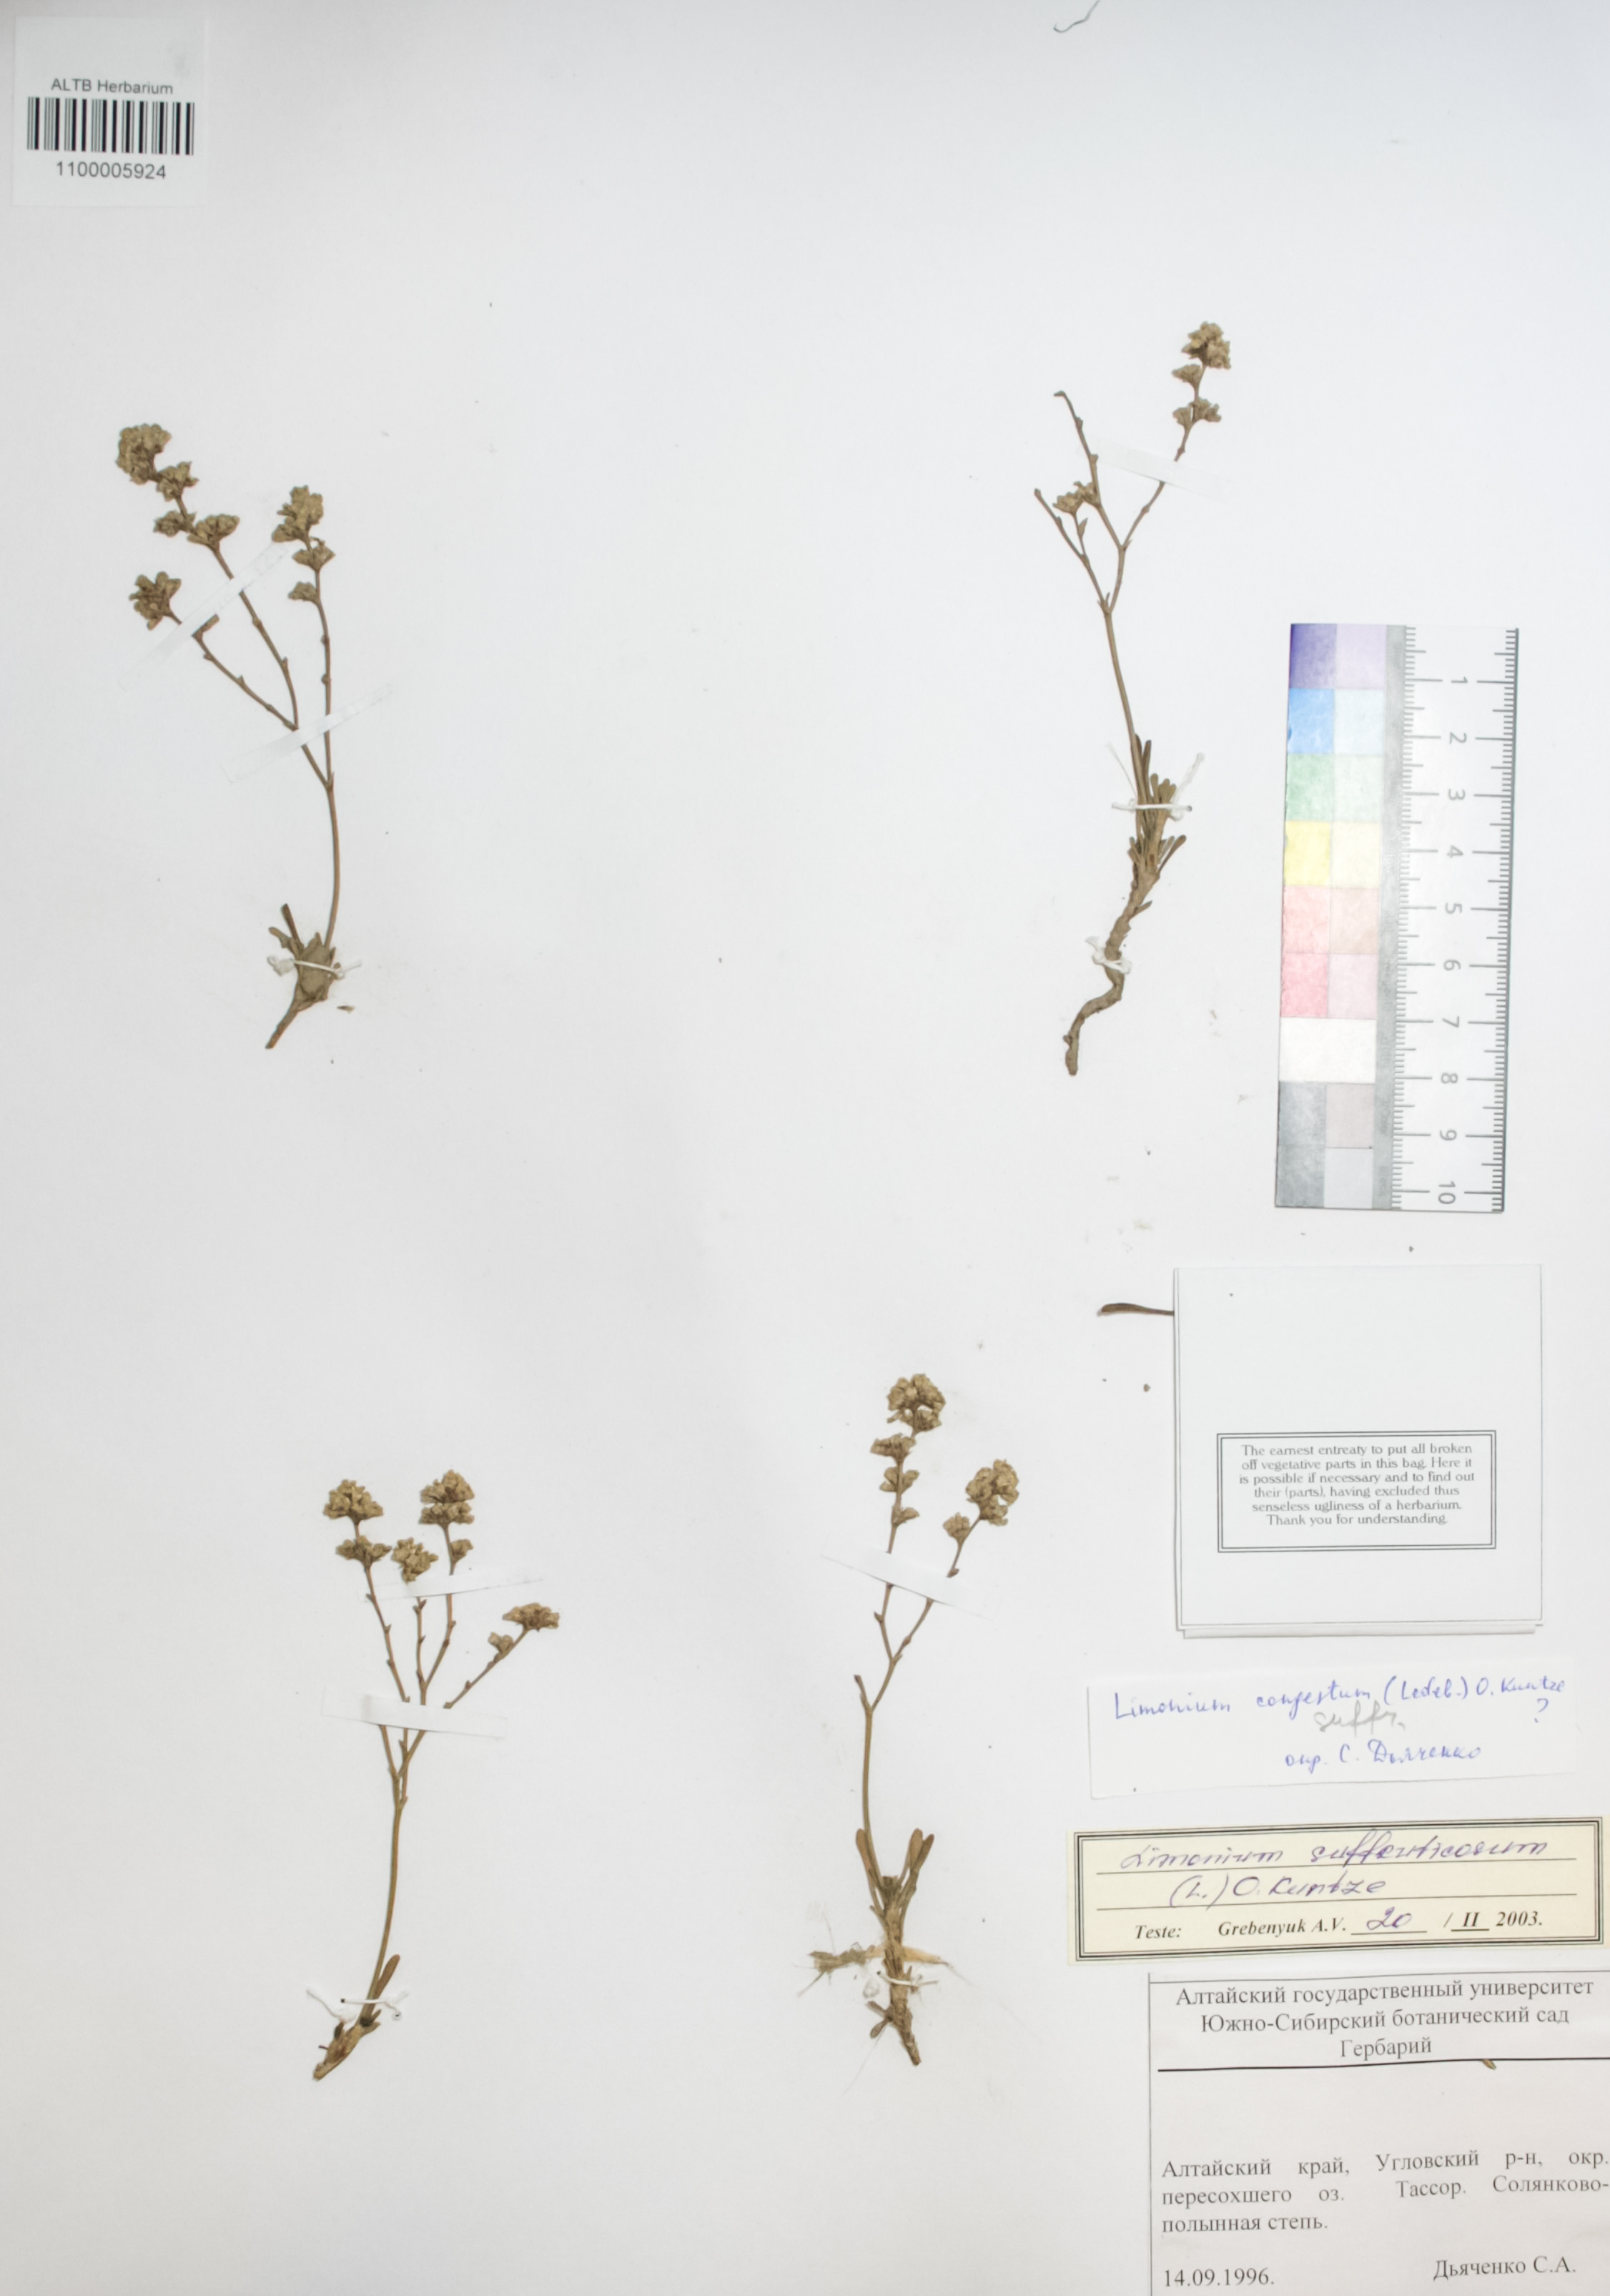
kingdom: Plantae
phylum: Tracheophyta
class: Magnoliopsida
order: Caryophyllales
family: Plumbaginaceae
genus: Limonium
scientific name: Limonium suffruticosum
